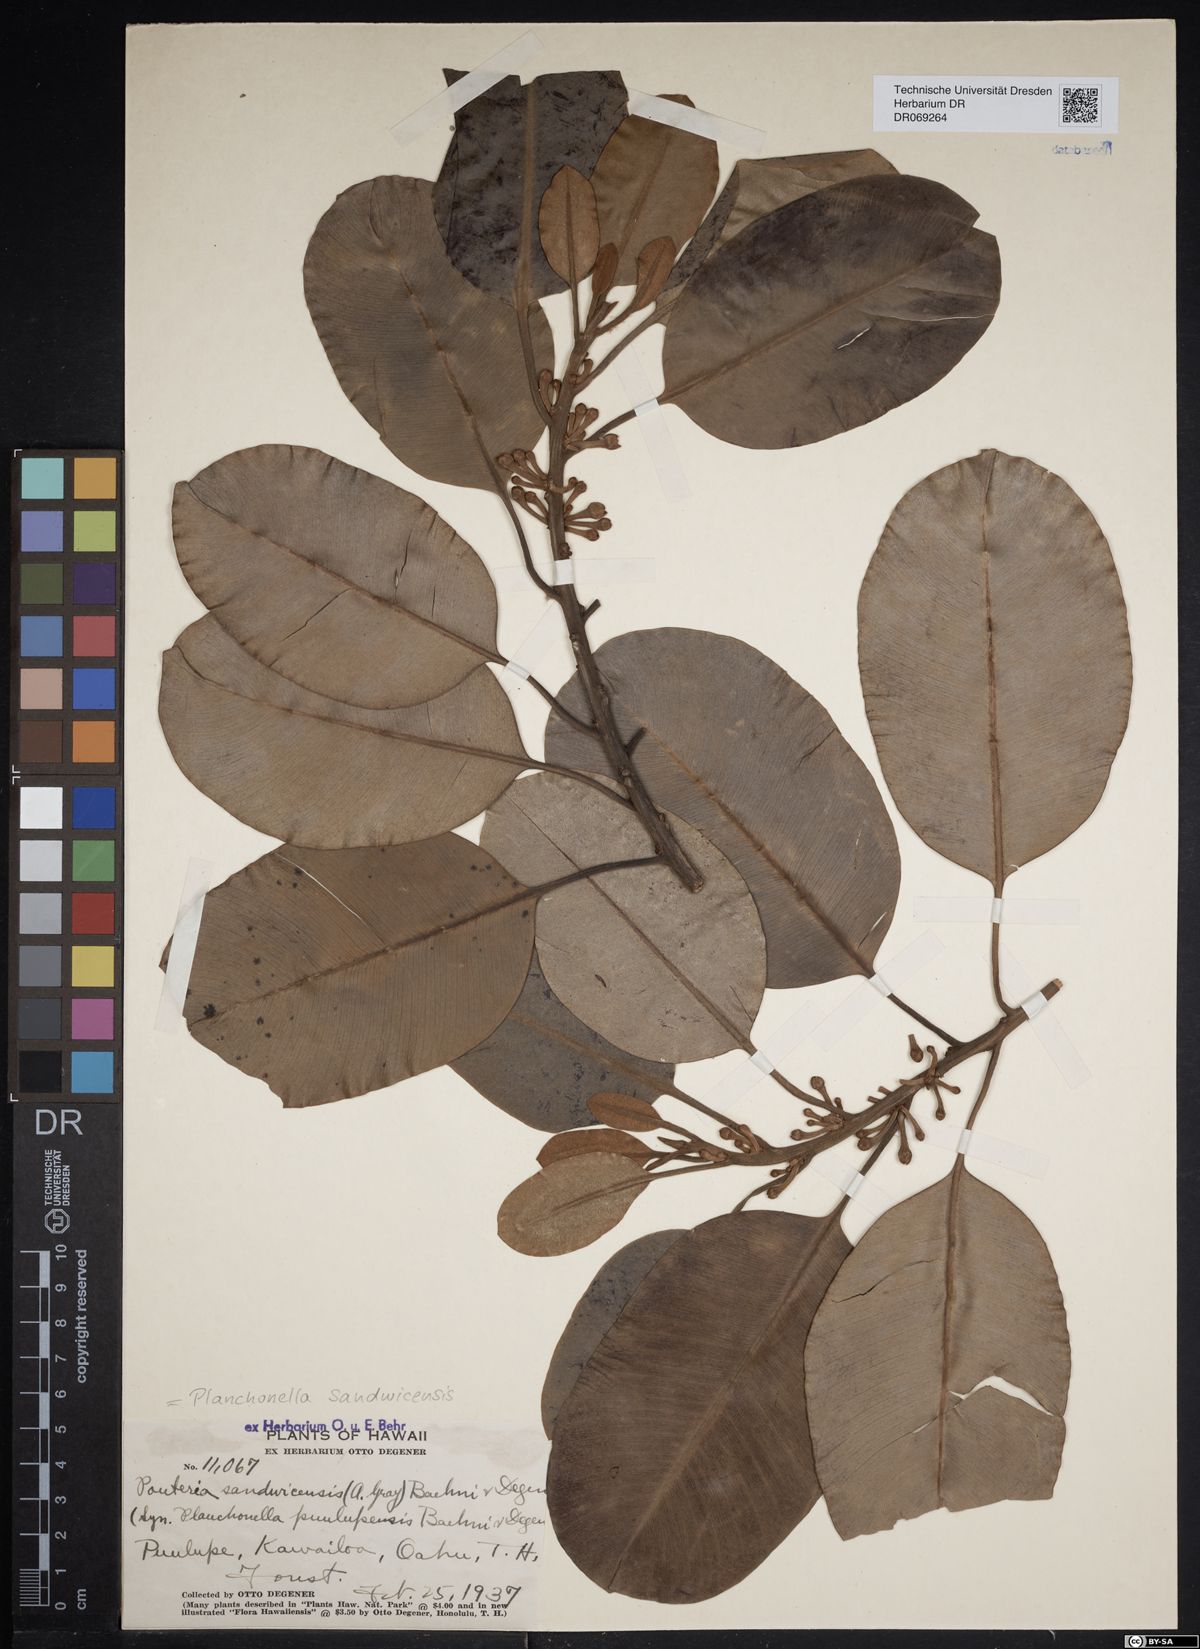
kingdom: Plantae
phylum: Tracheophyta
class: Magnoliopsida
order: Ericales
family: Sapotaceae
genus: Planchonella
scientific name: Planchonella sandwicensis
